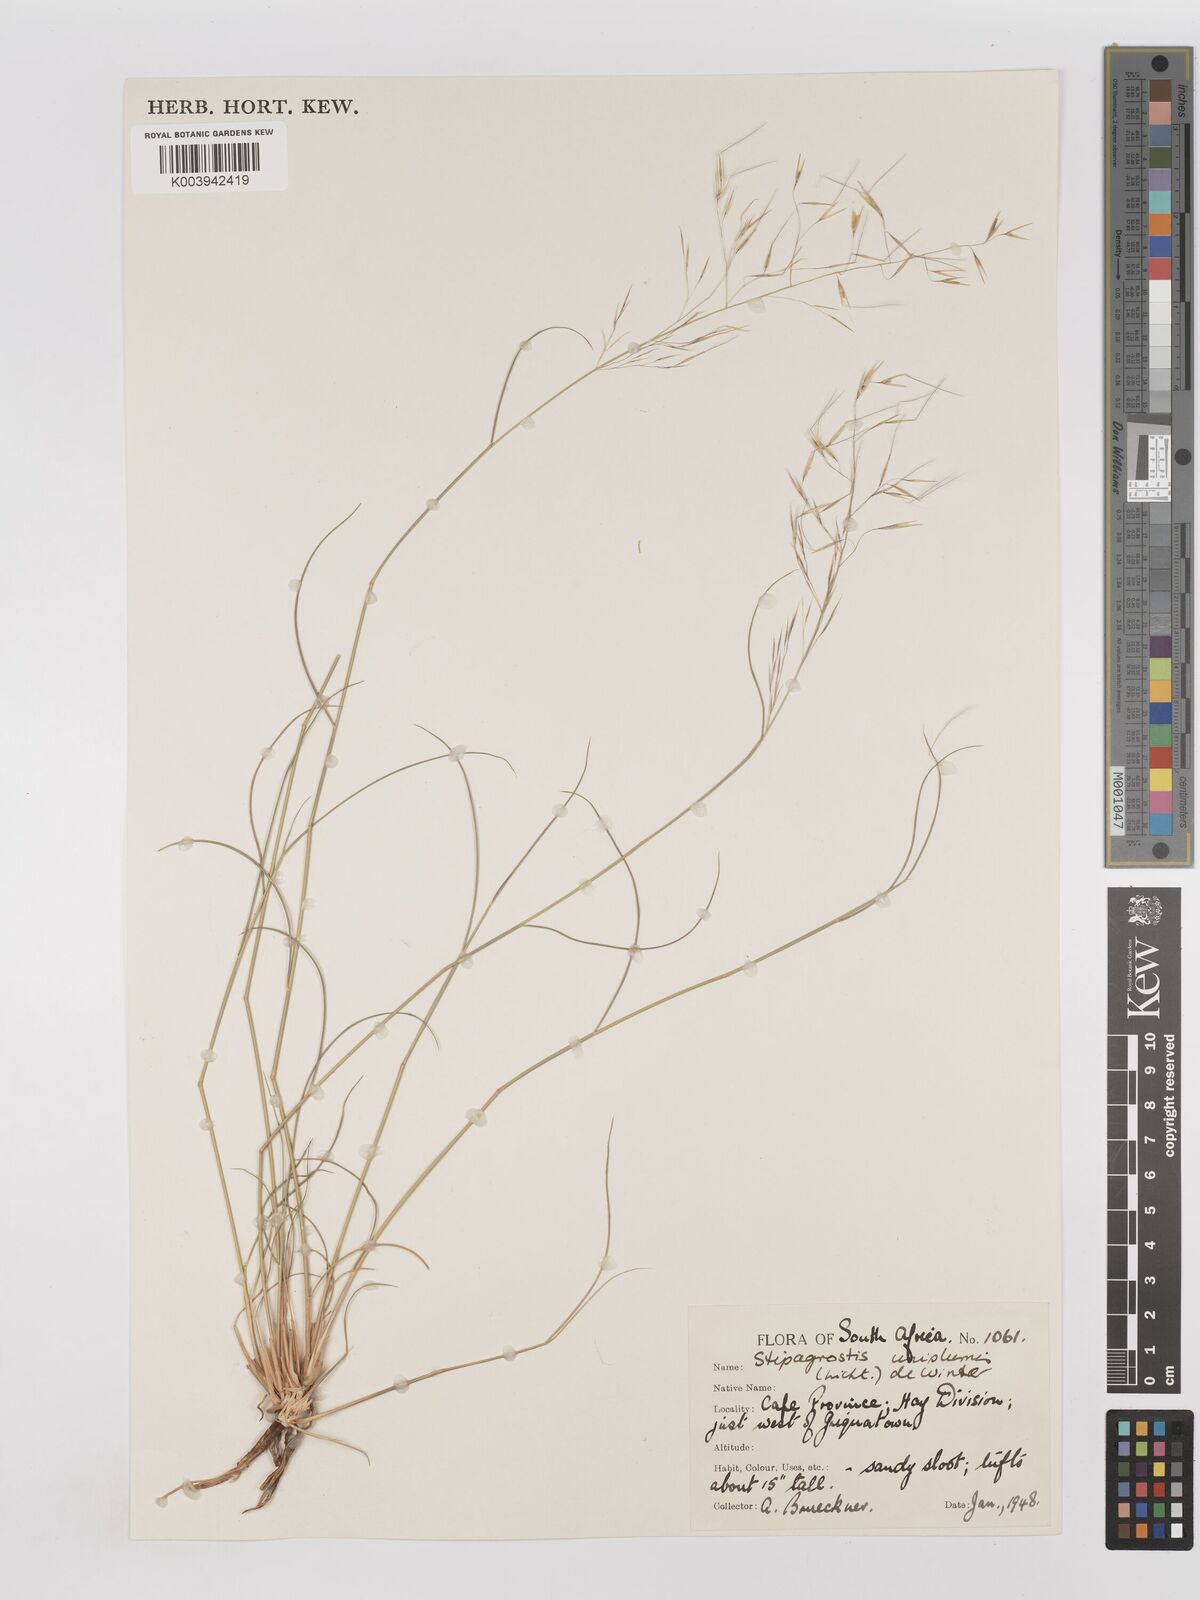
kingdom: Plantae
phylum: Tracheophyta
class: Liliopsida
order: Poales
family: Poaceae
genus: Stipagrostis
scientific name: Stipagrostis uniplumis
